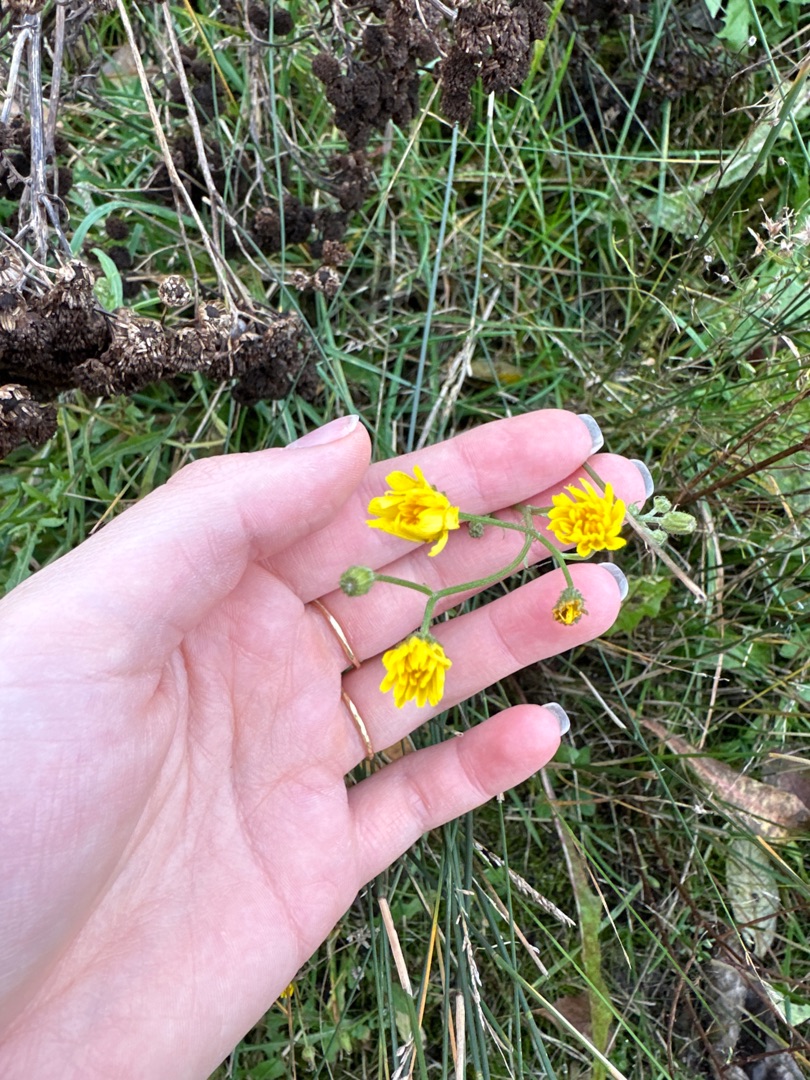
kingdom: Plantae
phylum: Tracheophyta
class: Magnoliopsida
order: Asterales
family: Asteraceae
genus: Crepis
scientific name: Crepis capillaris
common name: Grøn høgeskæg
